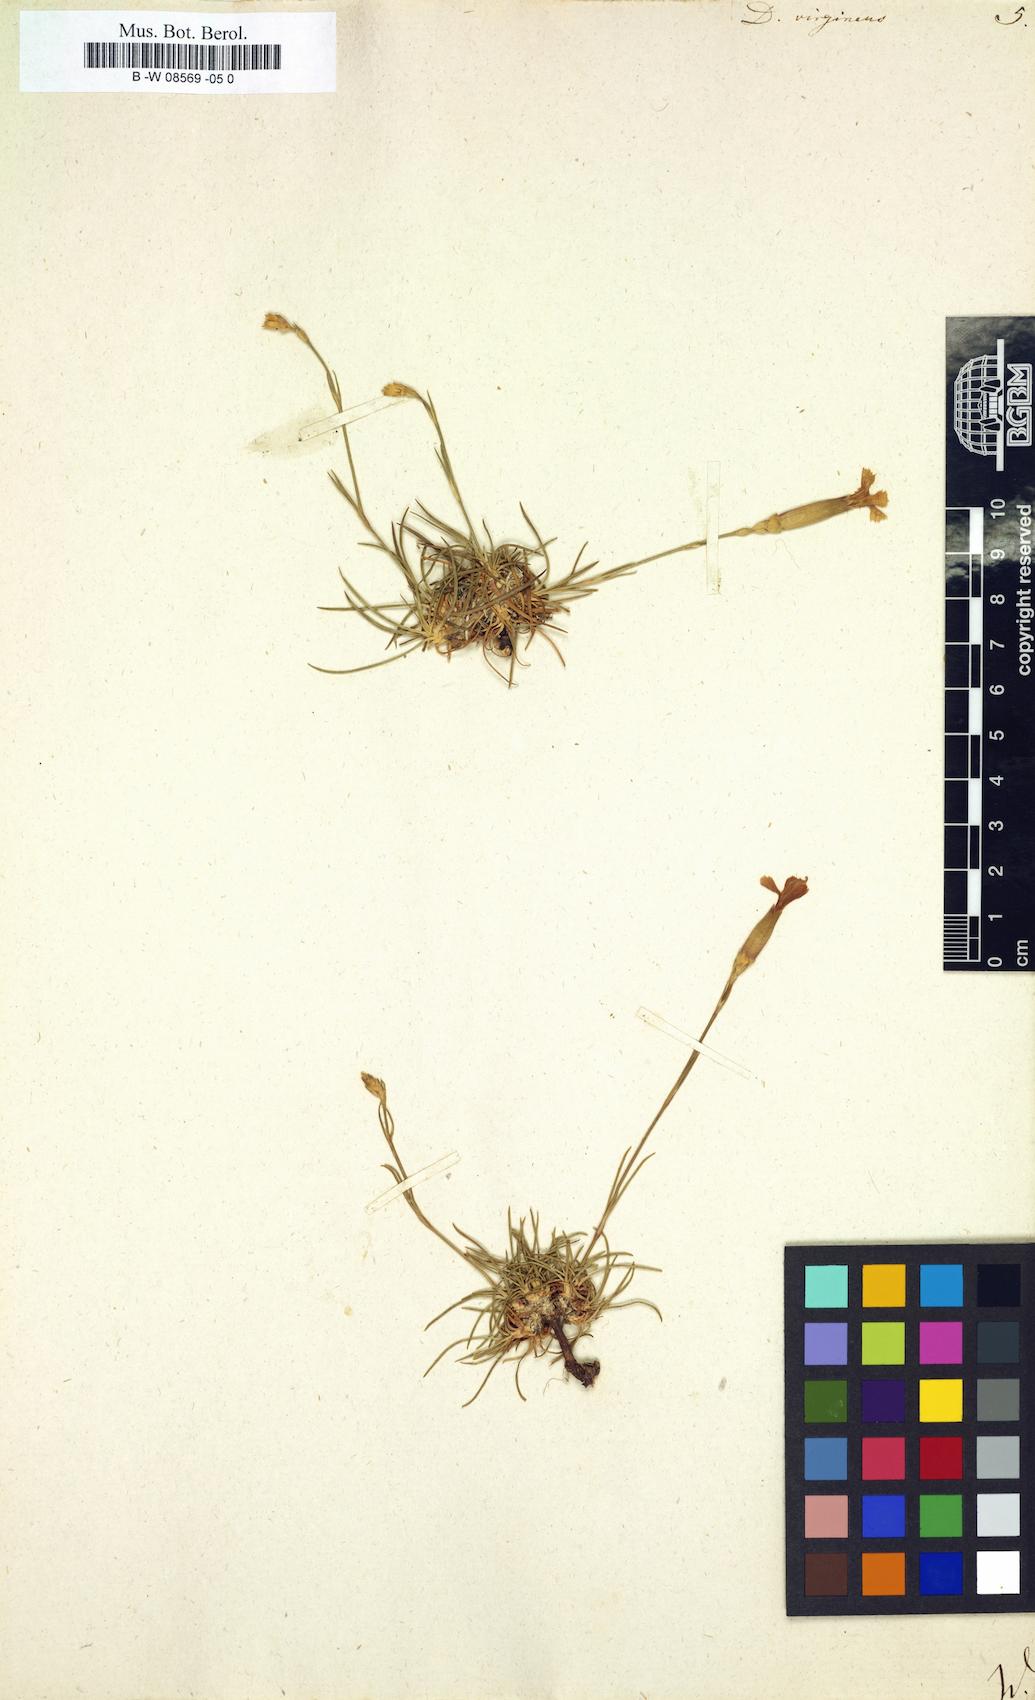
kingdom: Plantae
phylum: Tracheophyta
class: Magnoliopsida
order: Caryophyllales
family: Caryophyllaceae
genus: Dianthus
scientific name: Dianthus virgineus
